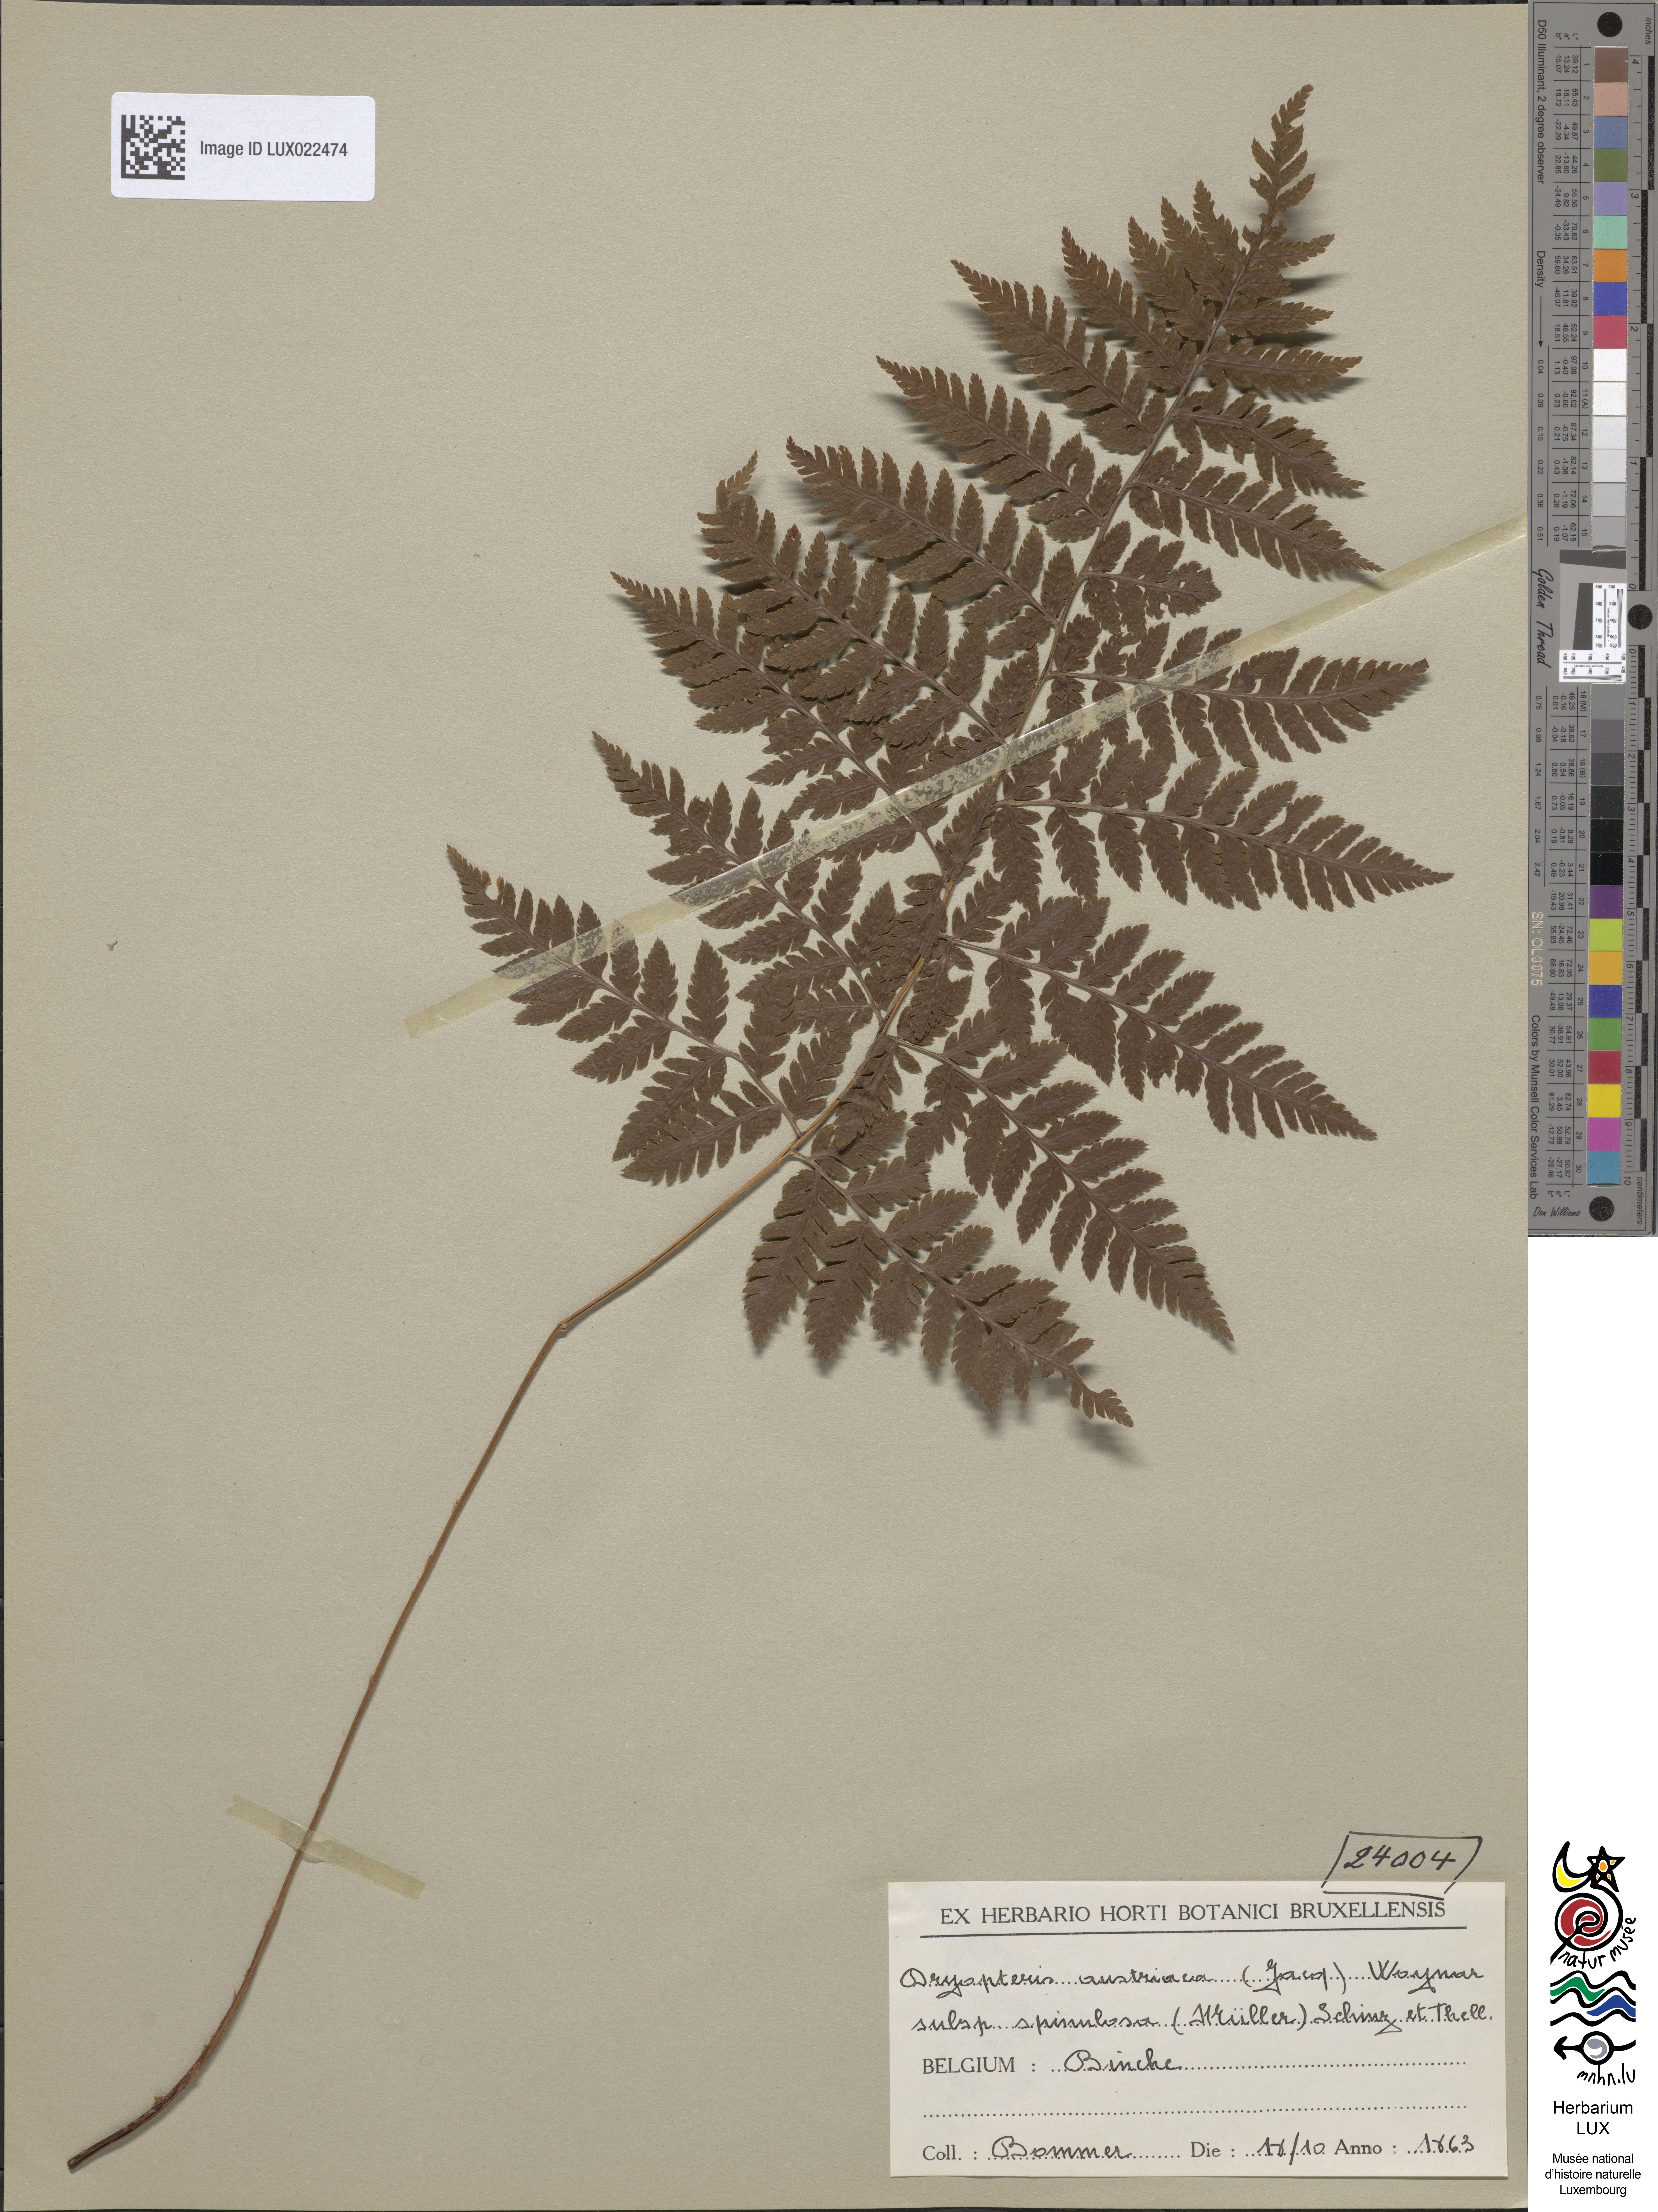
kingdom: Plantae
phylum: Tracheophyta
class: Polypodiopsida
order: Polypodiales
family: Dryopteridaceae
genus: Dryopteris
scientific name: Dryopteris carthusiana
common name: Narrow buckler-fern
